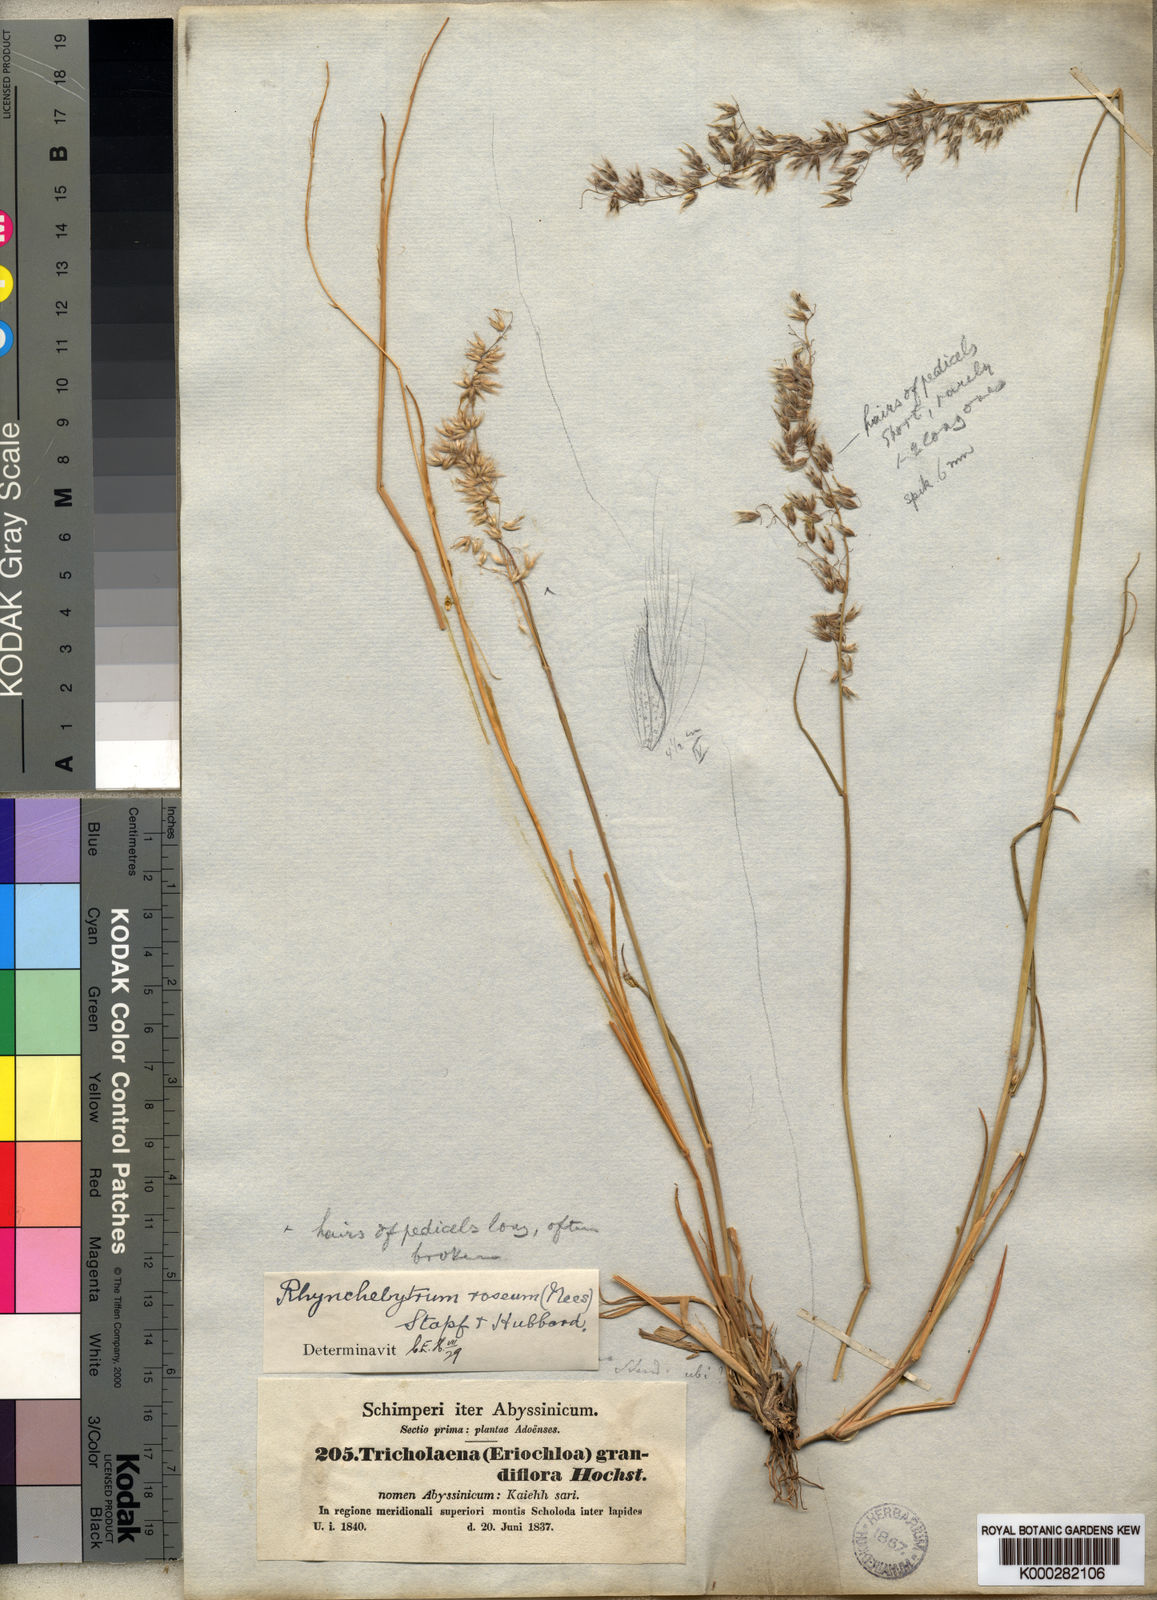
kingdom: Plantae
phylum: Tracheophyta
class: Liliopsida
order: Poales
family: Poaceae
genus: Melinis
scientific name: Melinis repens
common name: Rose natal grass
